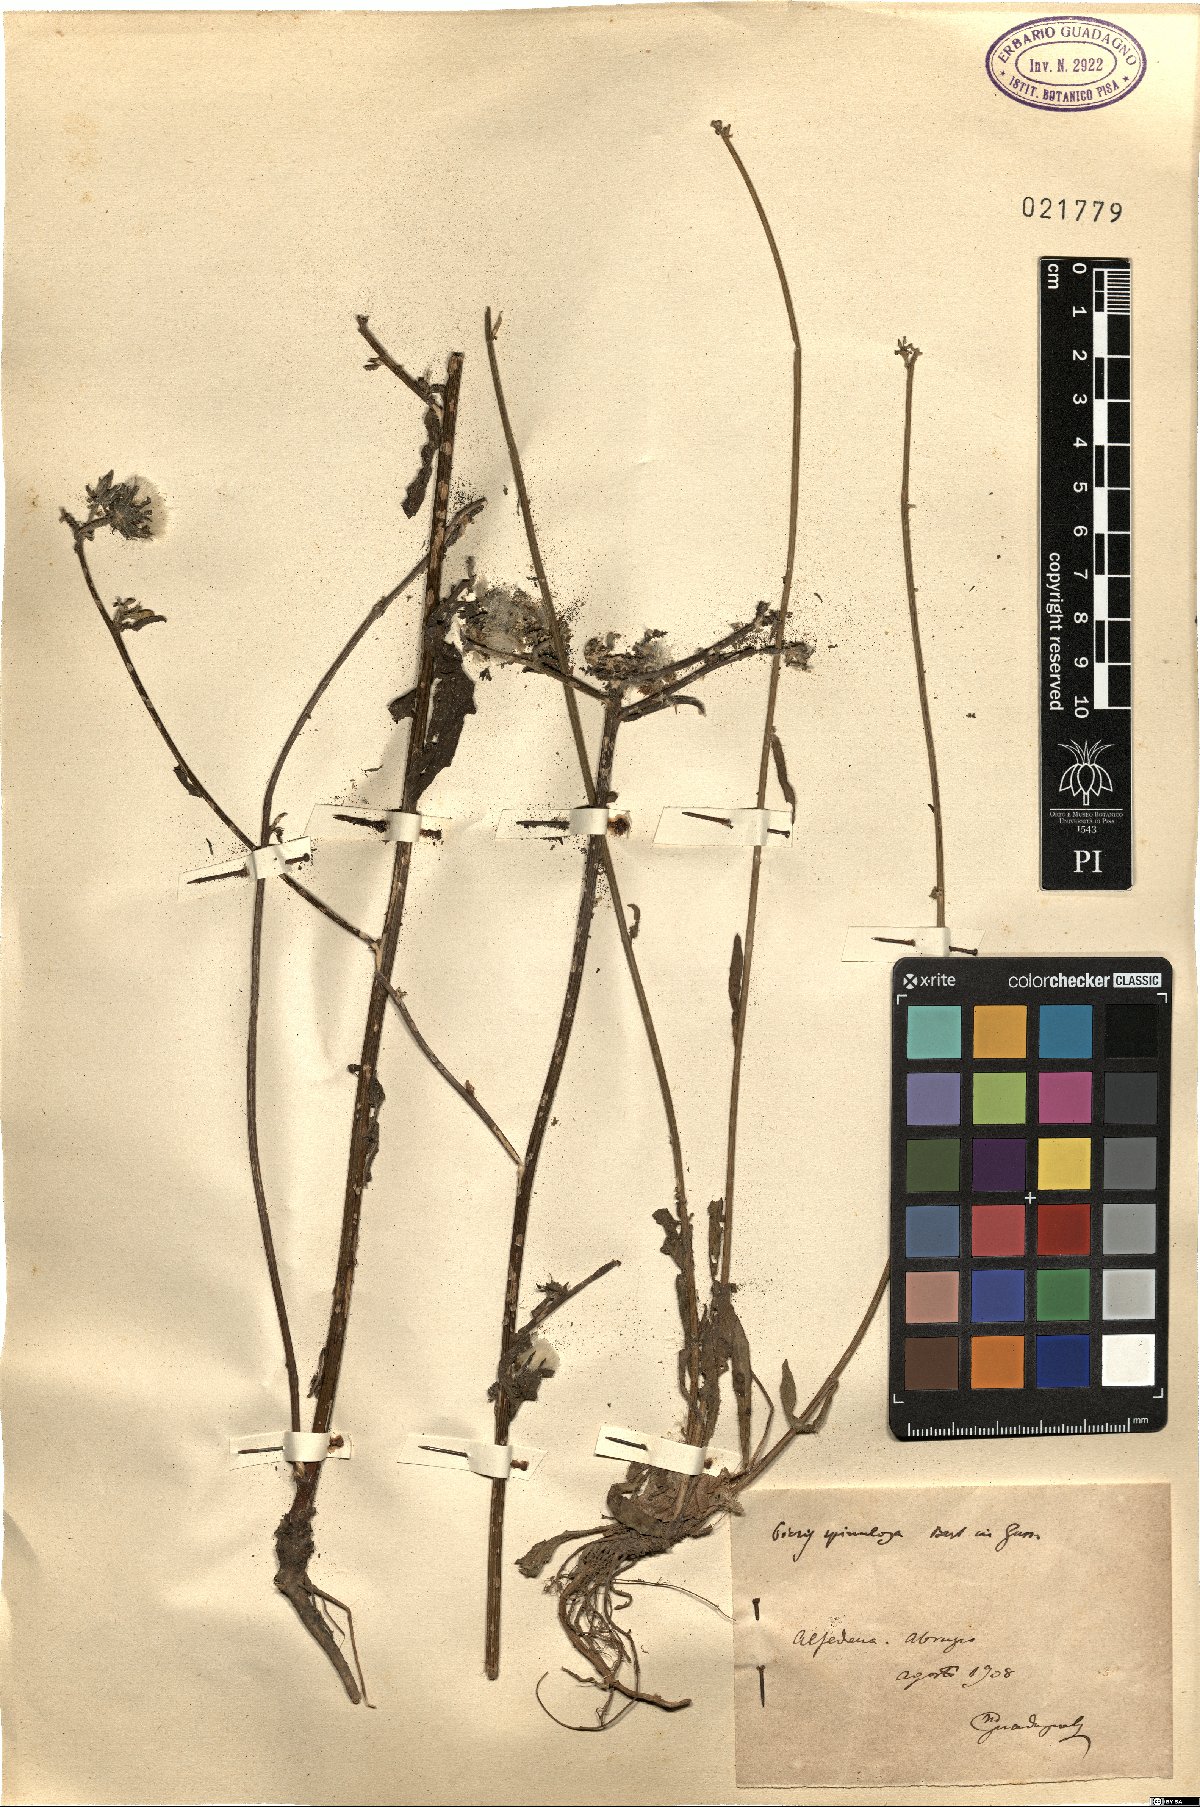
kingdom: Plantae
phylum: Tracheophyta
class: Magnoliopsida
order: Asterales
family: Asteraceae
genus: Picris
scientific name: Picris hieracioides
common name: Hawkweed oxtongue
